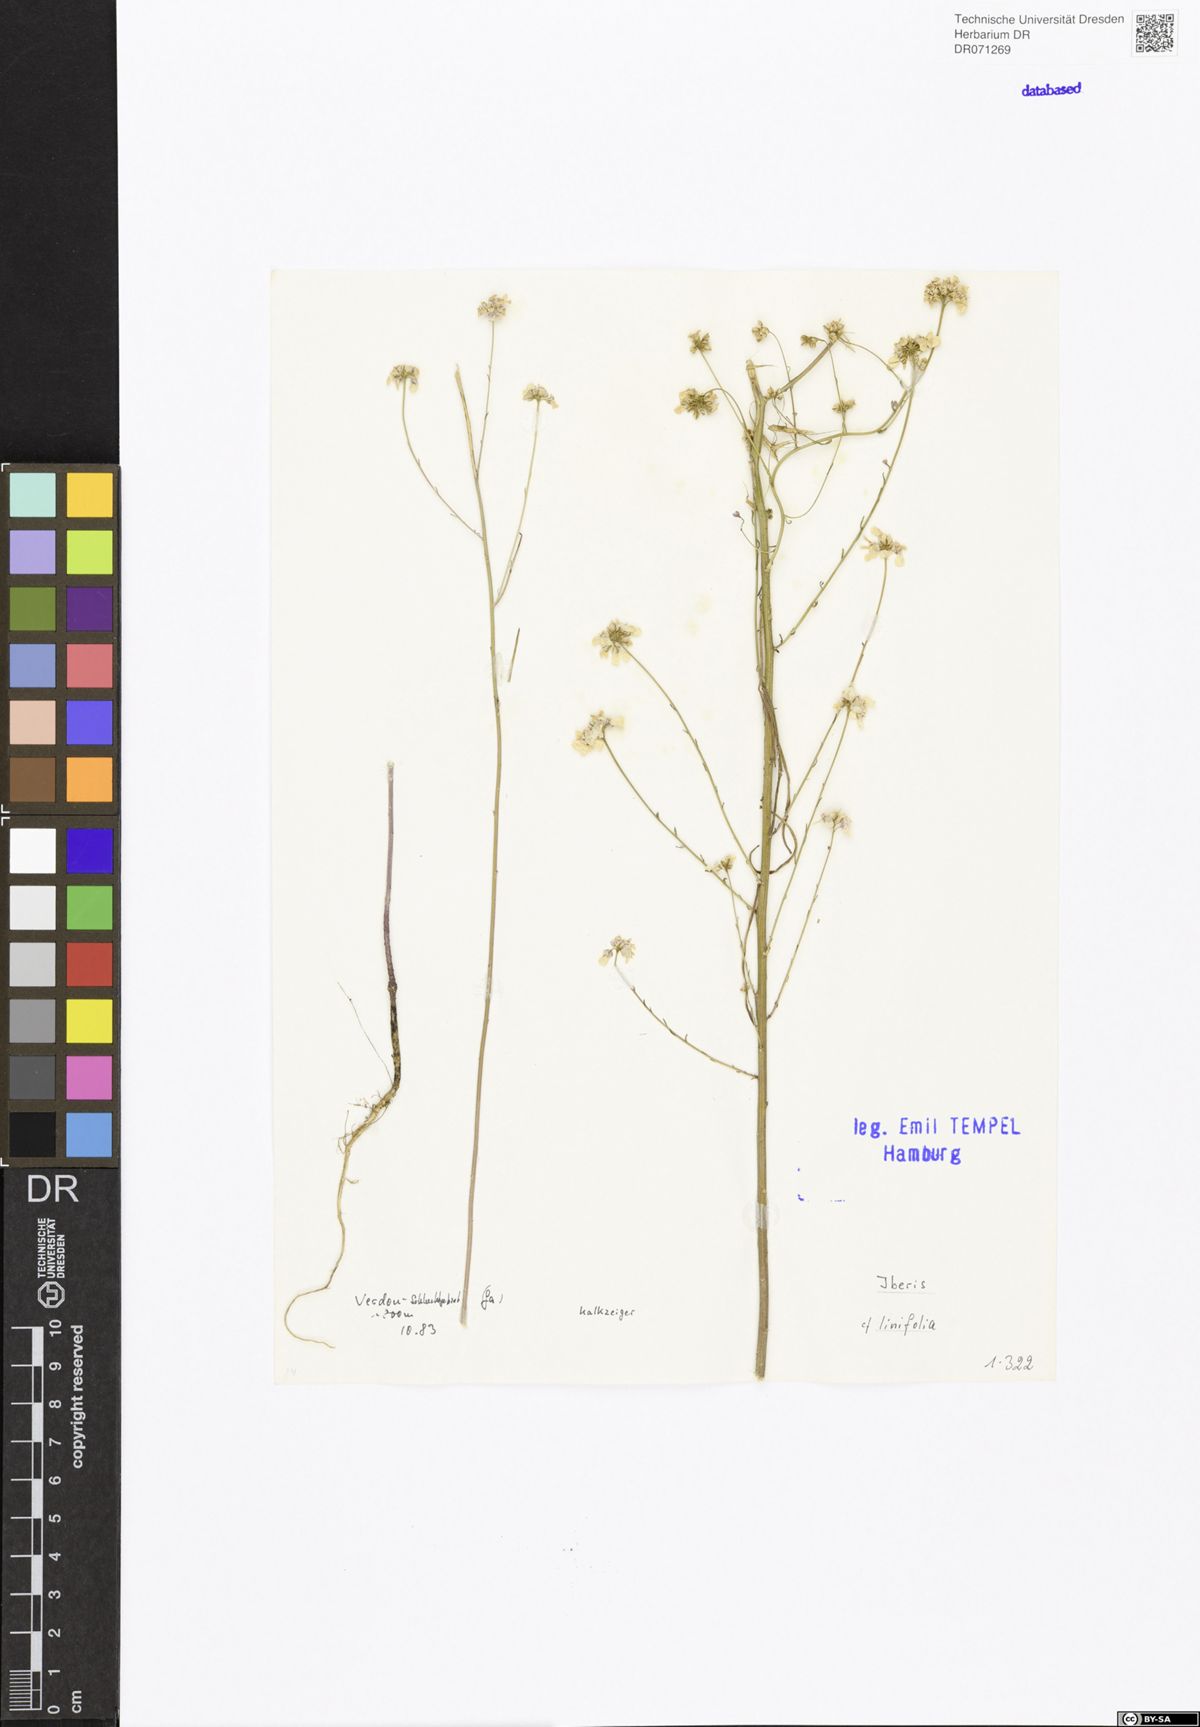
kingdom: Plantae
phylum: Tracheophyta
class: Magnoliopsida
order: Brassicales
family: Brassicaceae
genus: Iberis
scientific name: Iberis linifolia
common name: Candytuft
